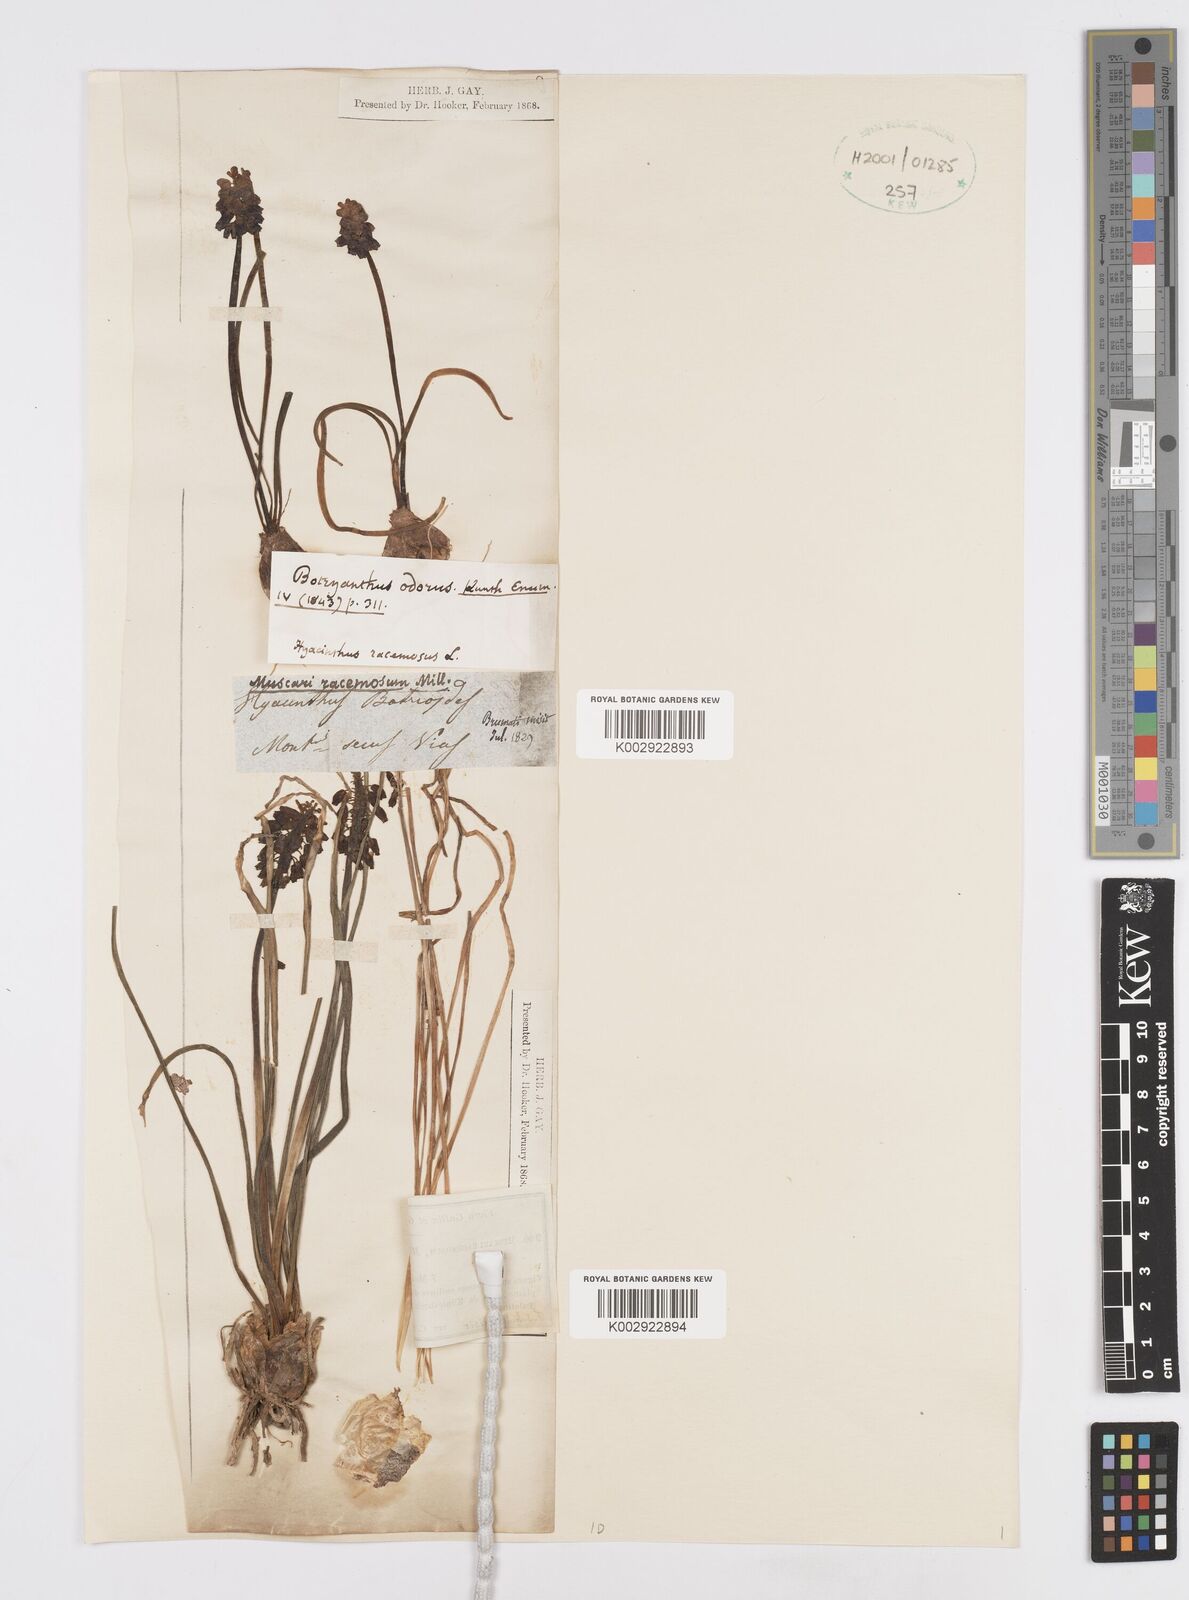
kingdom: Plantae
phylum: Tracheophyta
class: Liliopsida
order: Asparagales
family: Asparagaceae
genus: Muscarimia
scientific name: Muscarimia muscari
